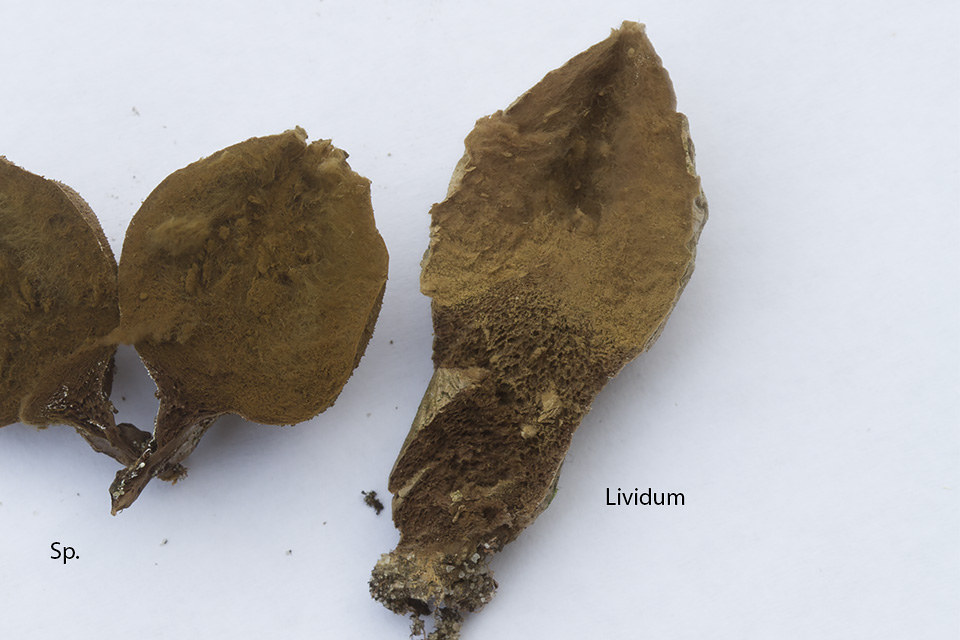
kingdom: Fungi
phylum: Basidiomycota
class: Agaricomycetes
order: Agaricales
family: Lycoperdaceae
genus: Lycoperdon
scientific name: Lycoperdon lividum
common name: mark-støvbold
